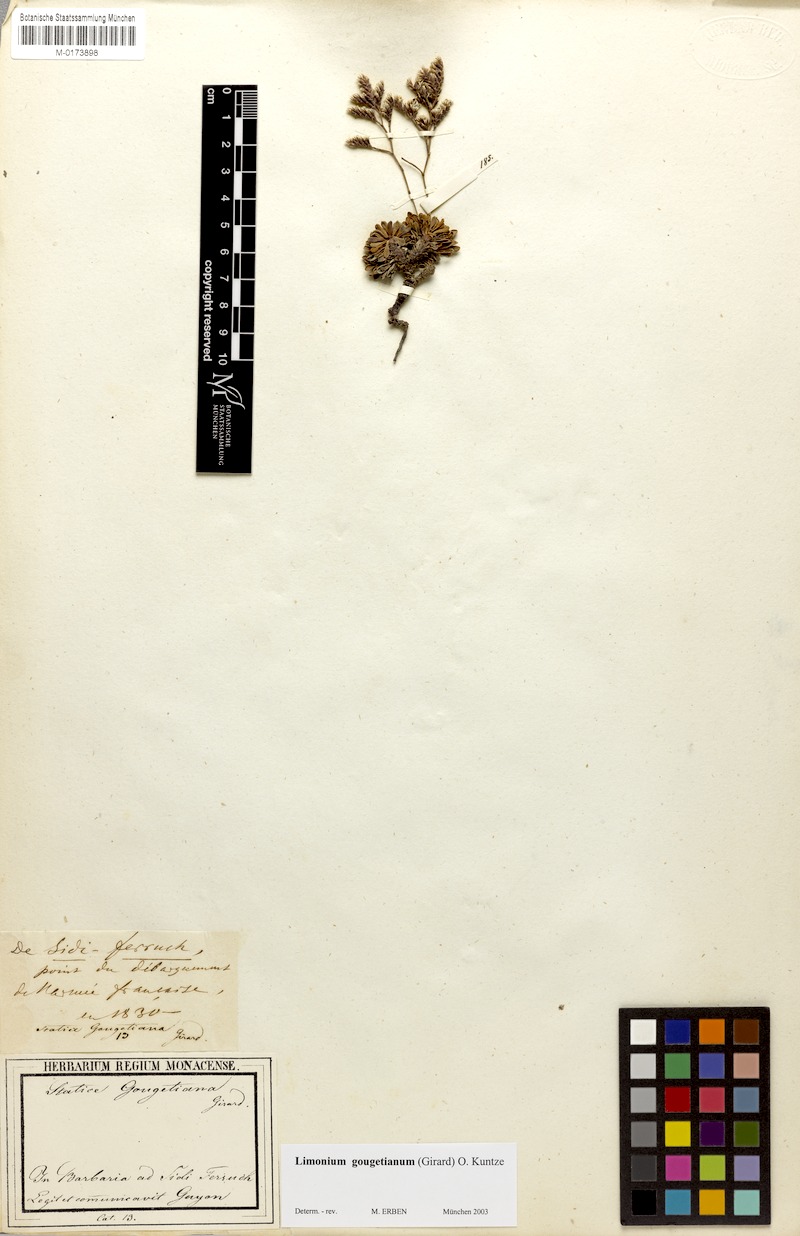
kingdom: Plantae
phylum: Tracheophyta
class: Magnoliopsida
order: Caryophyllales
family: Plumbaginaceae
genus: Limonium
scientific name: Limonium gougetianum
